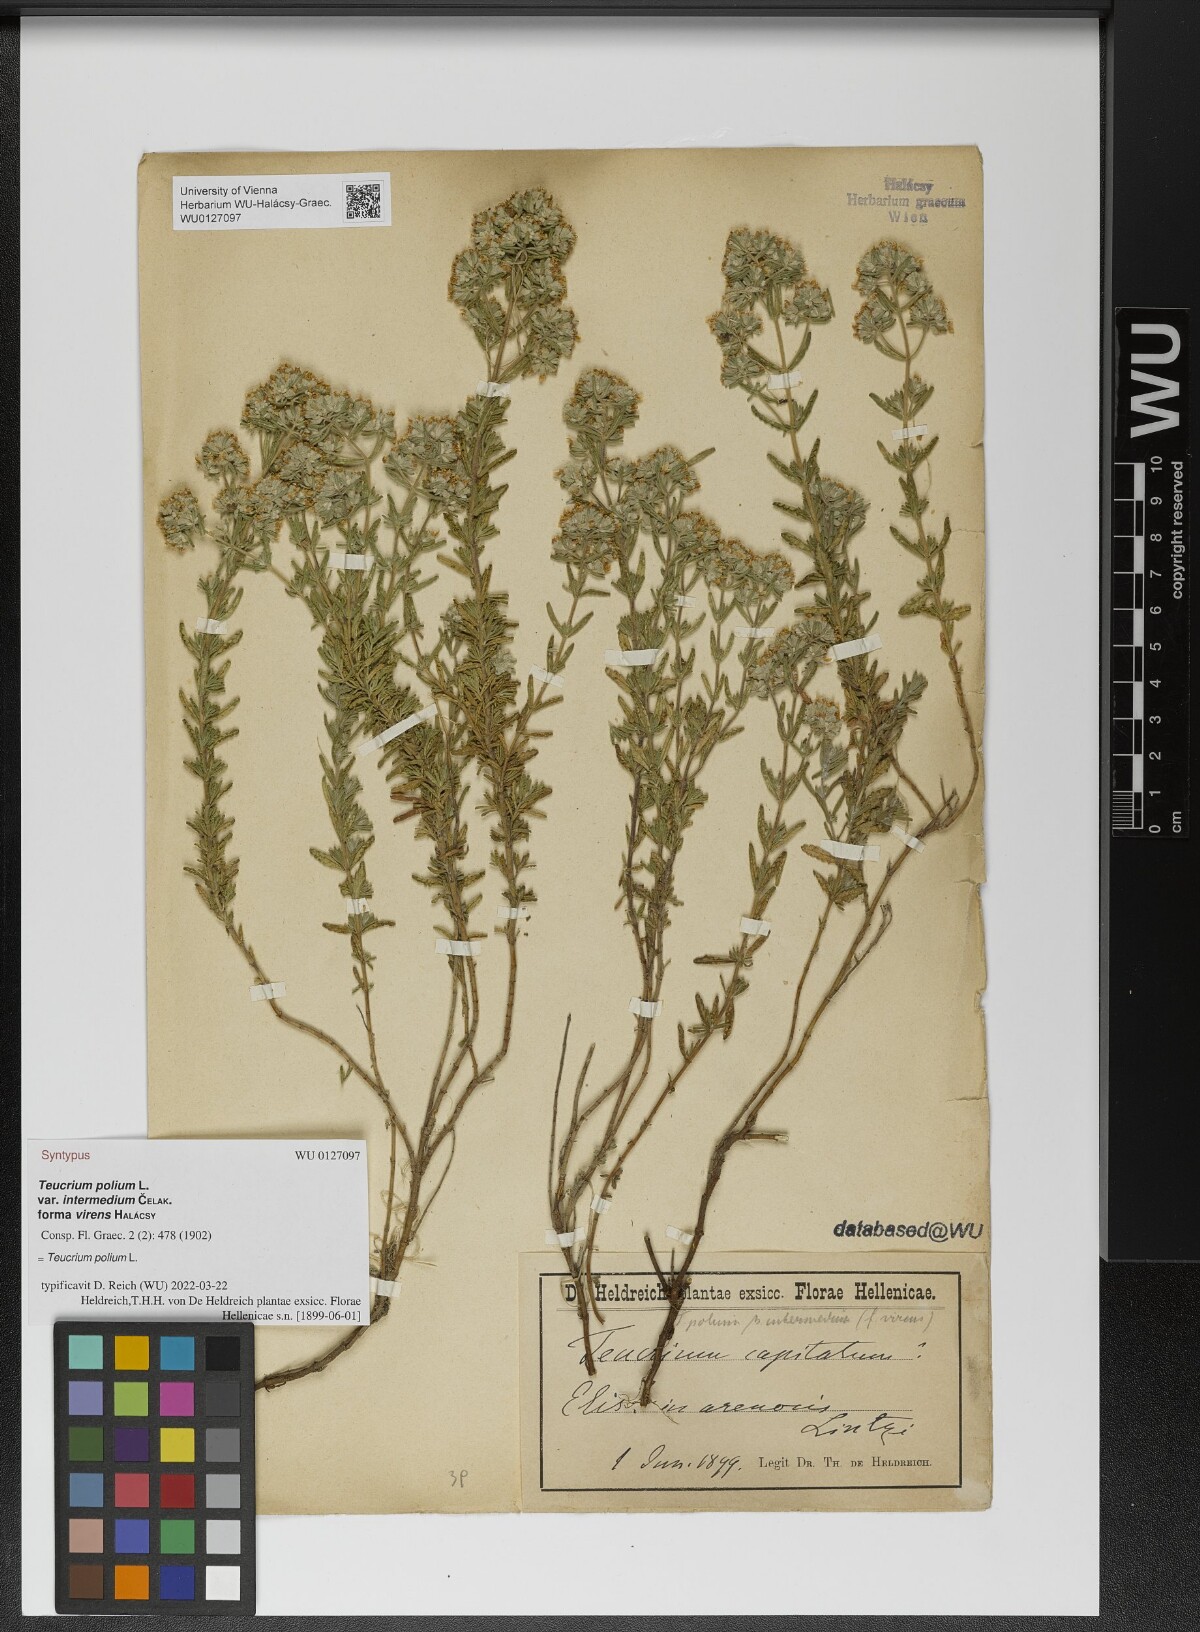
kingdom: Plantae
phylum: Tracheophyta
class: Magnoliopsida
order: Lamiales
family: Lamiaceae
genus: Teucrium
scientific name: Teucrium polium
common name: Poley
